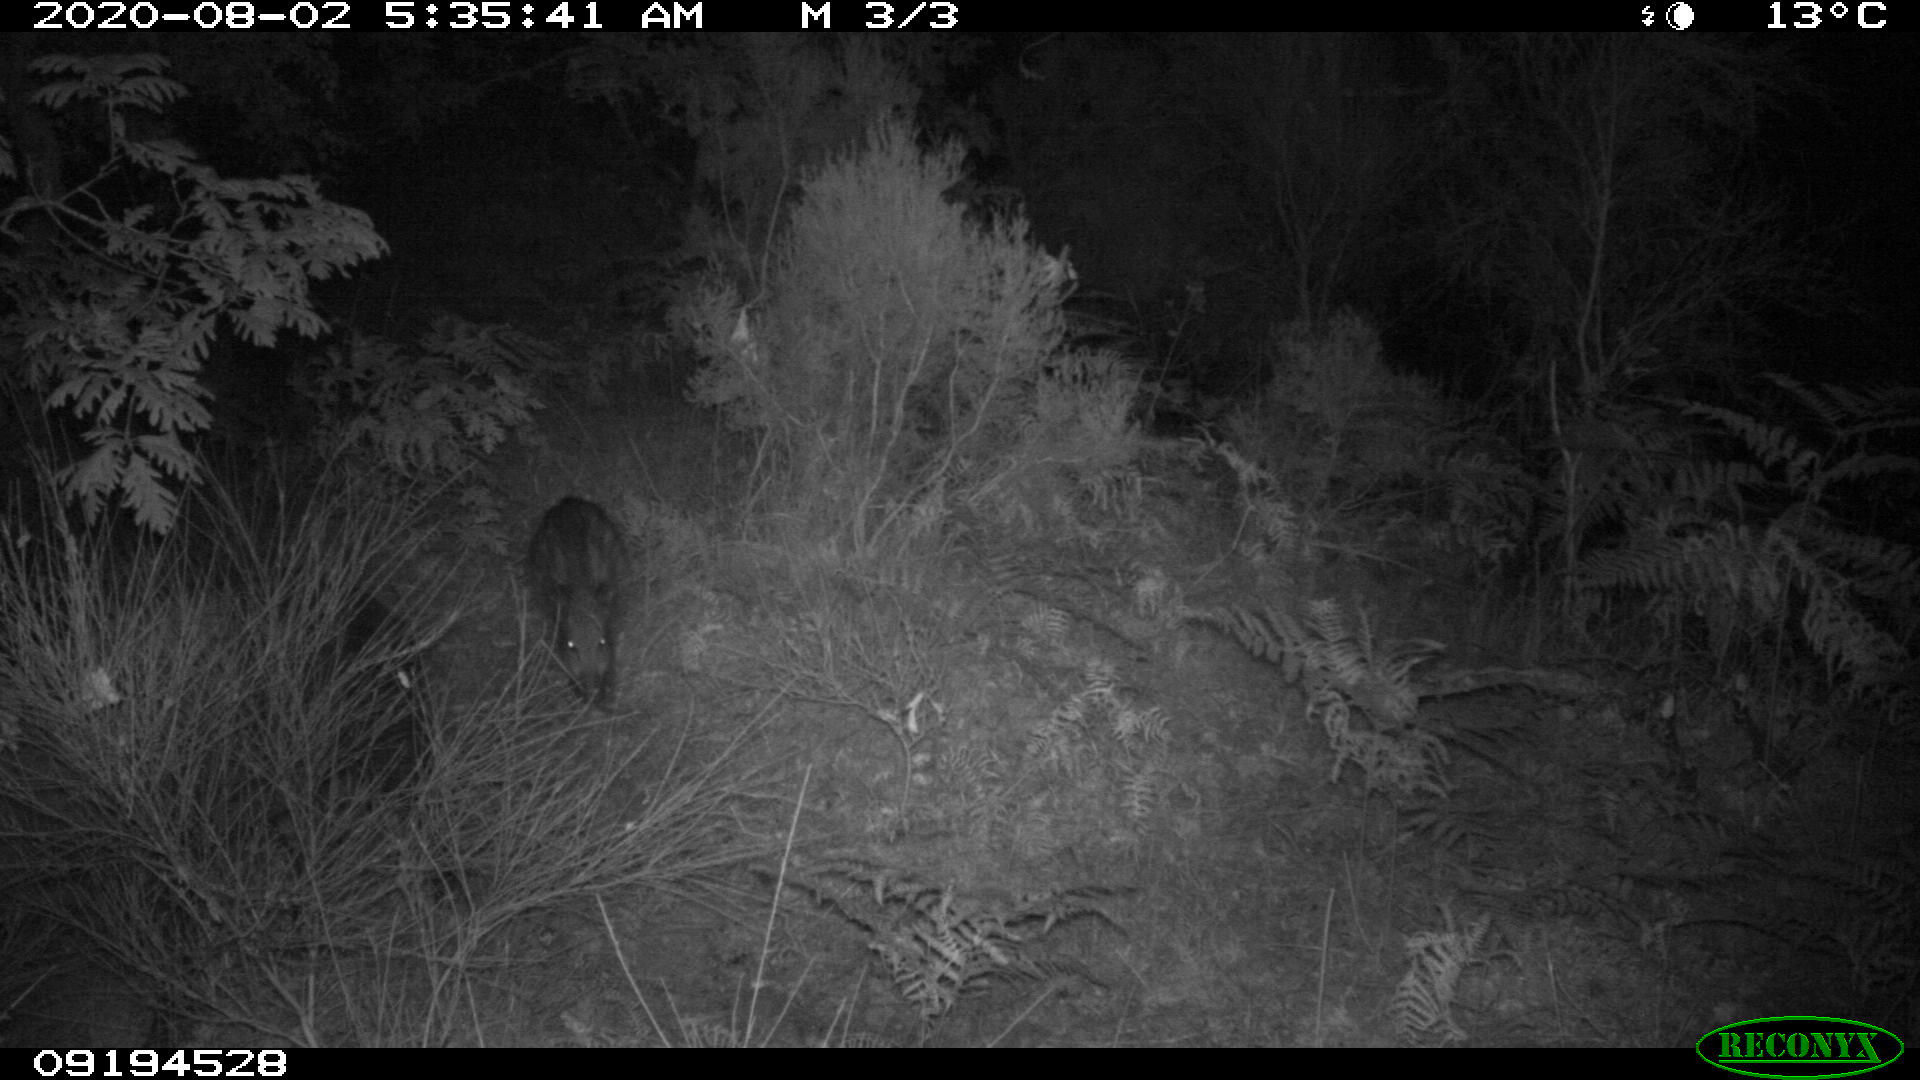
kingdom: Animalia
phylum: Chordata
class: Mammalia
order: Artiodactyla
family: Suidae
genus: Sus
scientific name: Sus scrofa
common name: Wild boar
